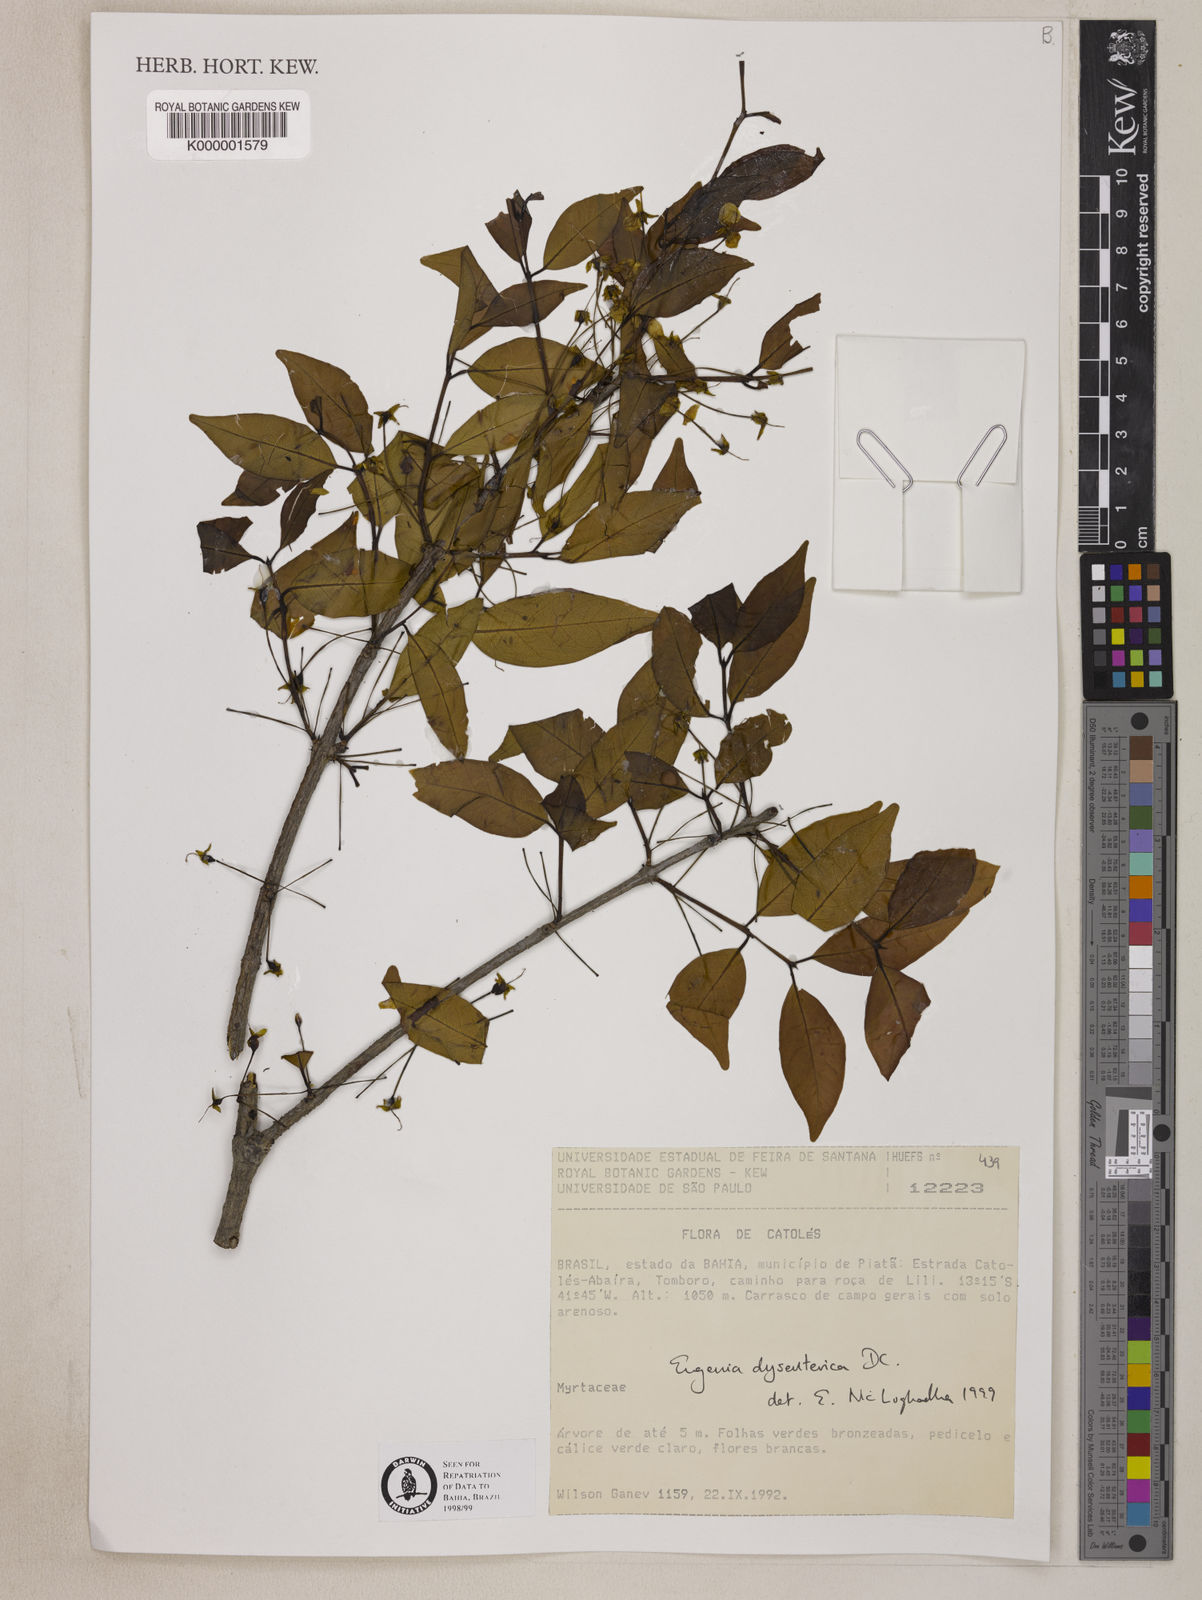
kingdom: Plantae
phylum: Tracheophyta
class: Magnoliopsida
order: Myrtales
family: Myrtaceae
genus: Eugenia
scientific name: Eugenia dysenterica
